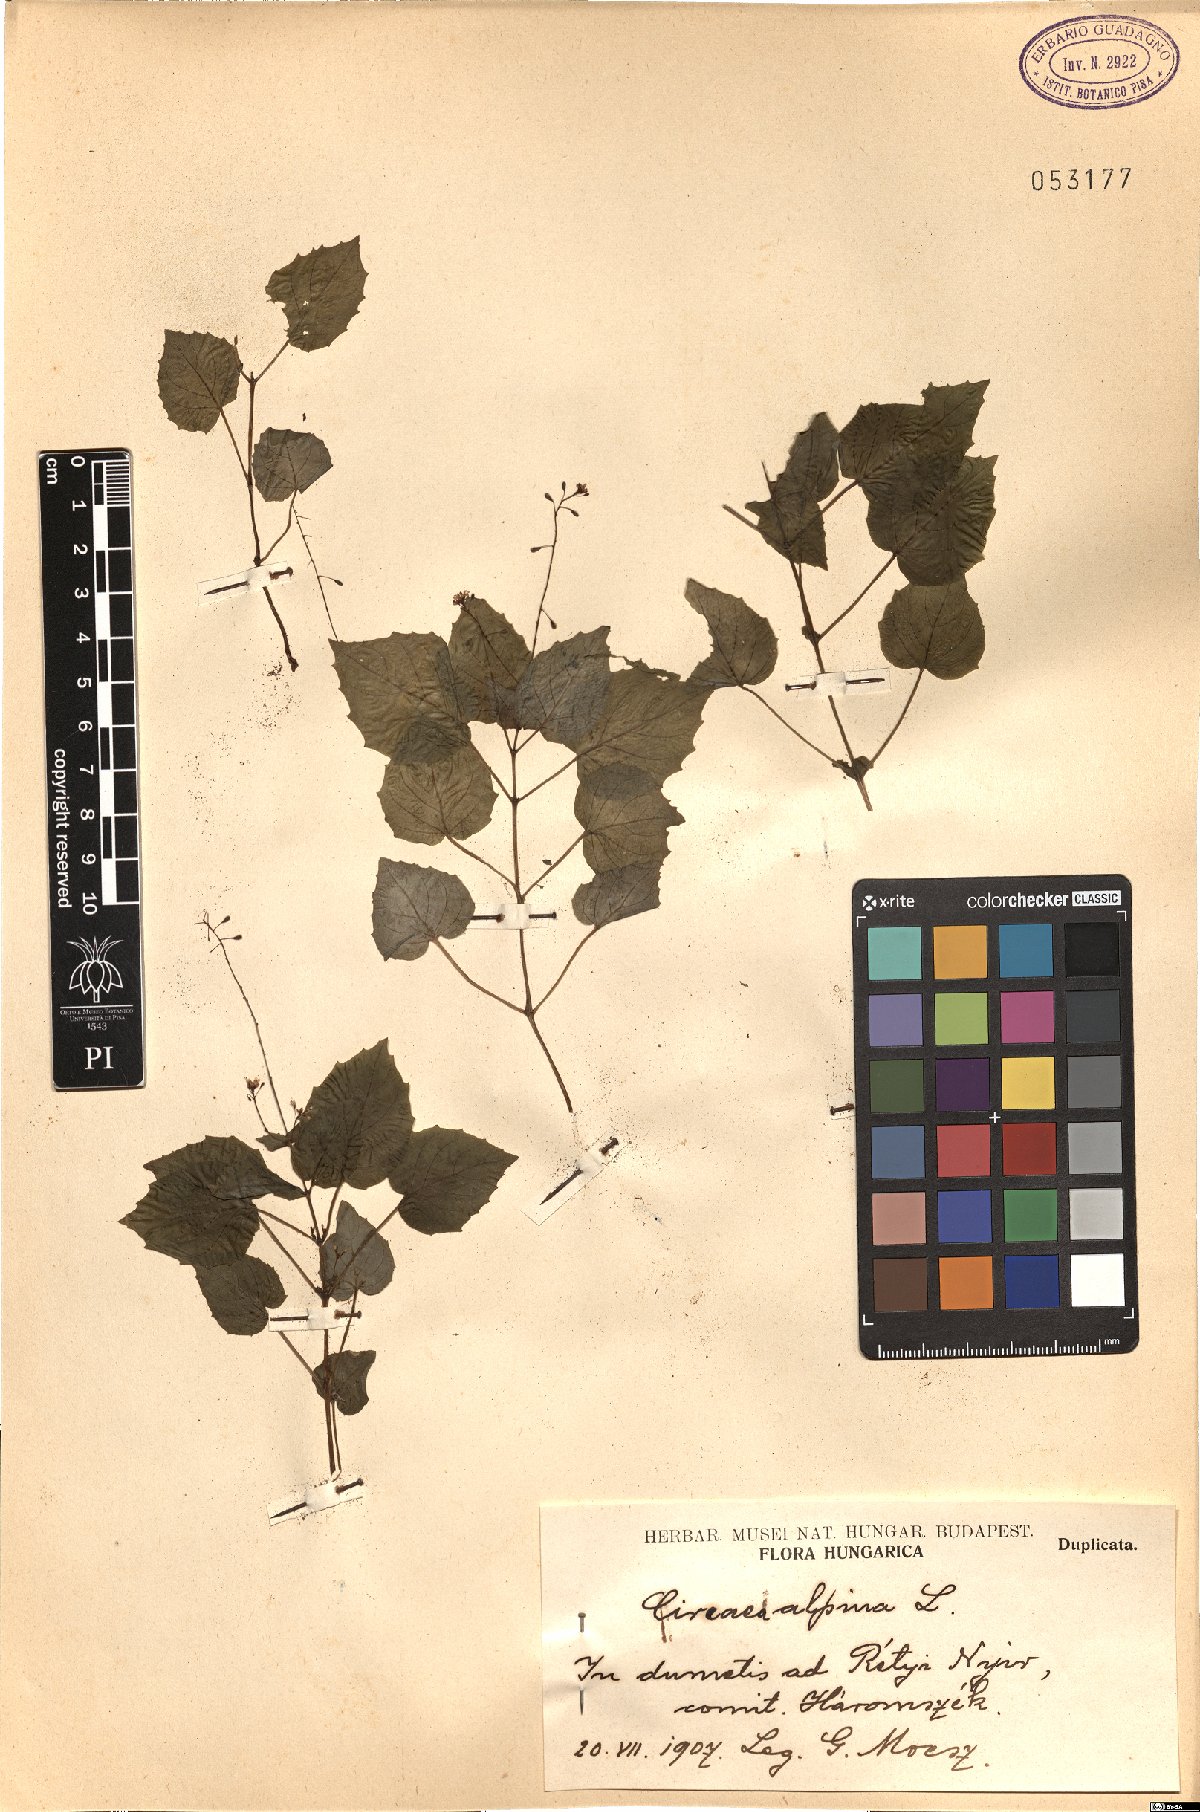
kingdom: Plantae
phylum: Tracheophyta
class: Magnoliopsida
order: Myrtales
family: Onagraceae
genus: Circaea
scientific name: Circaea alpina
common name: Alpine enchanter's-nightshade
